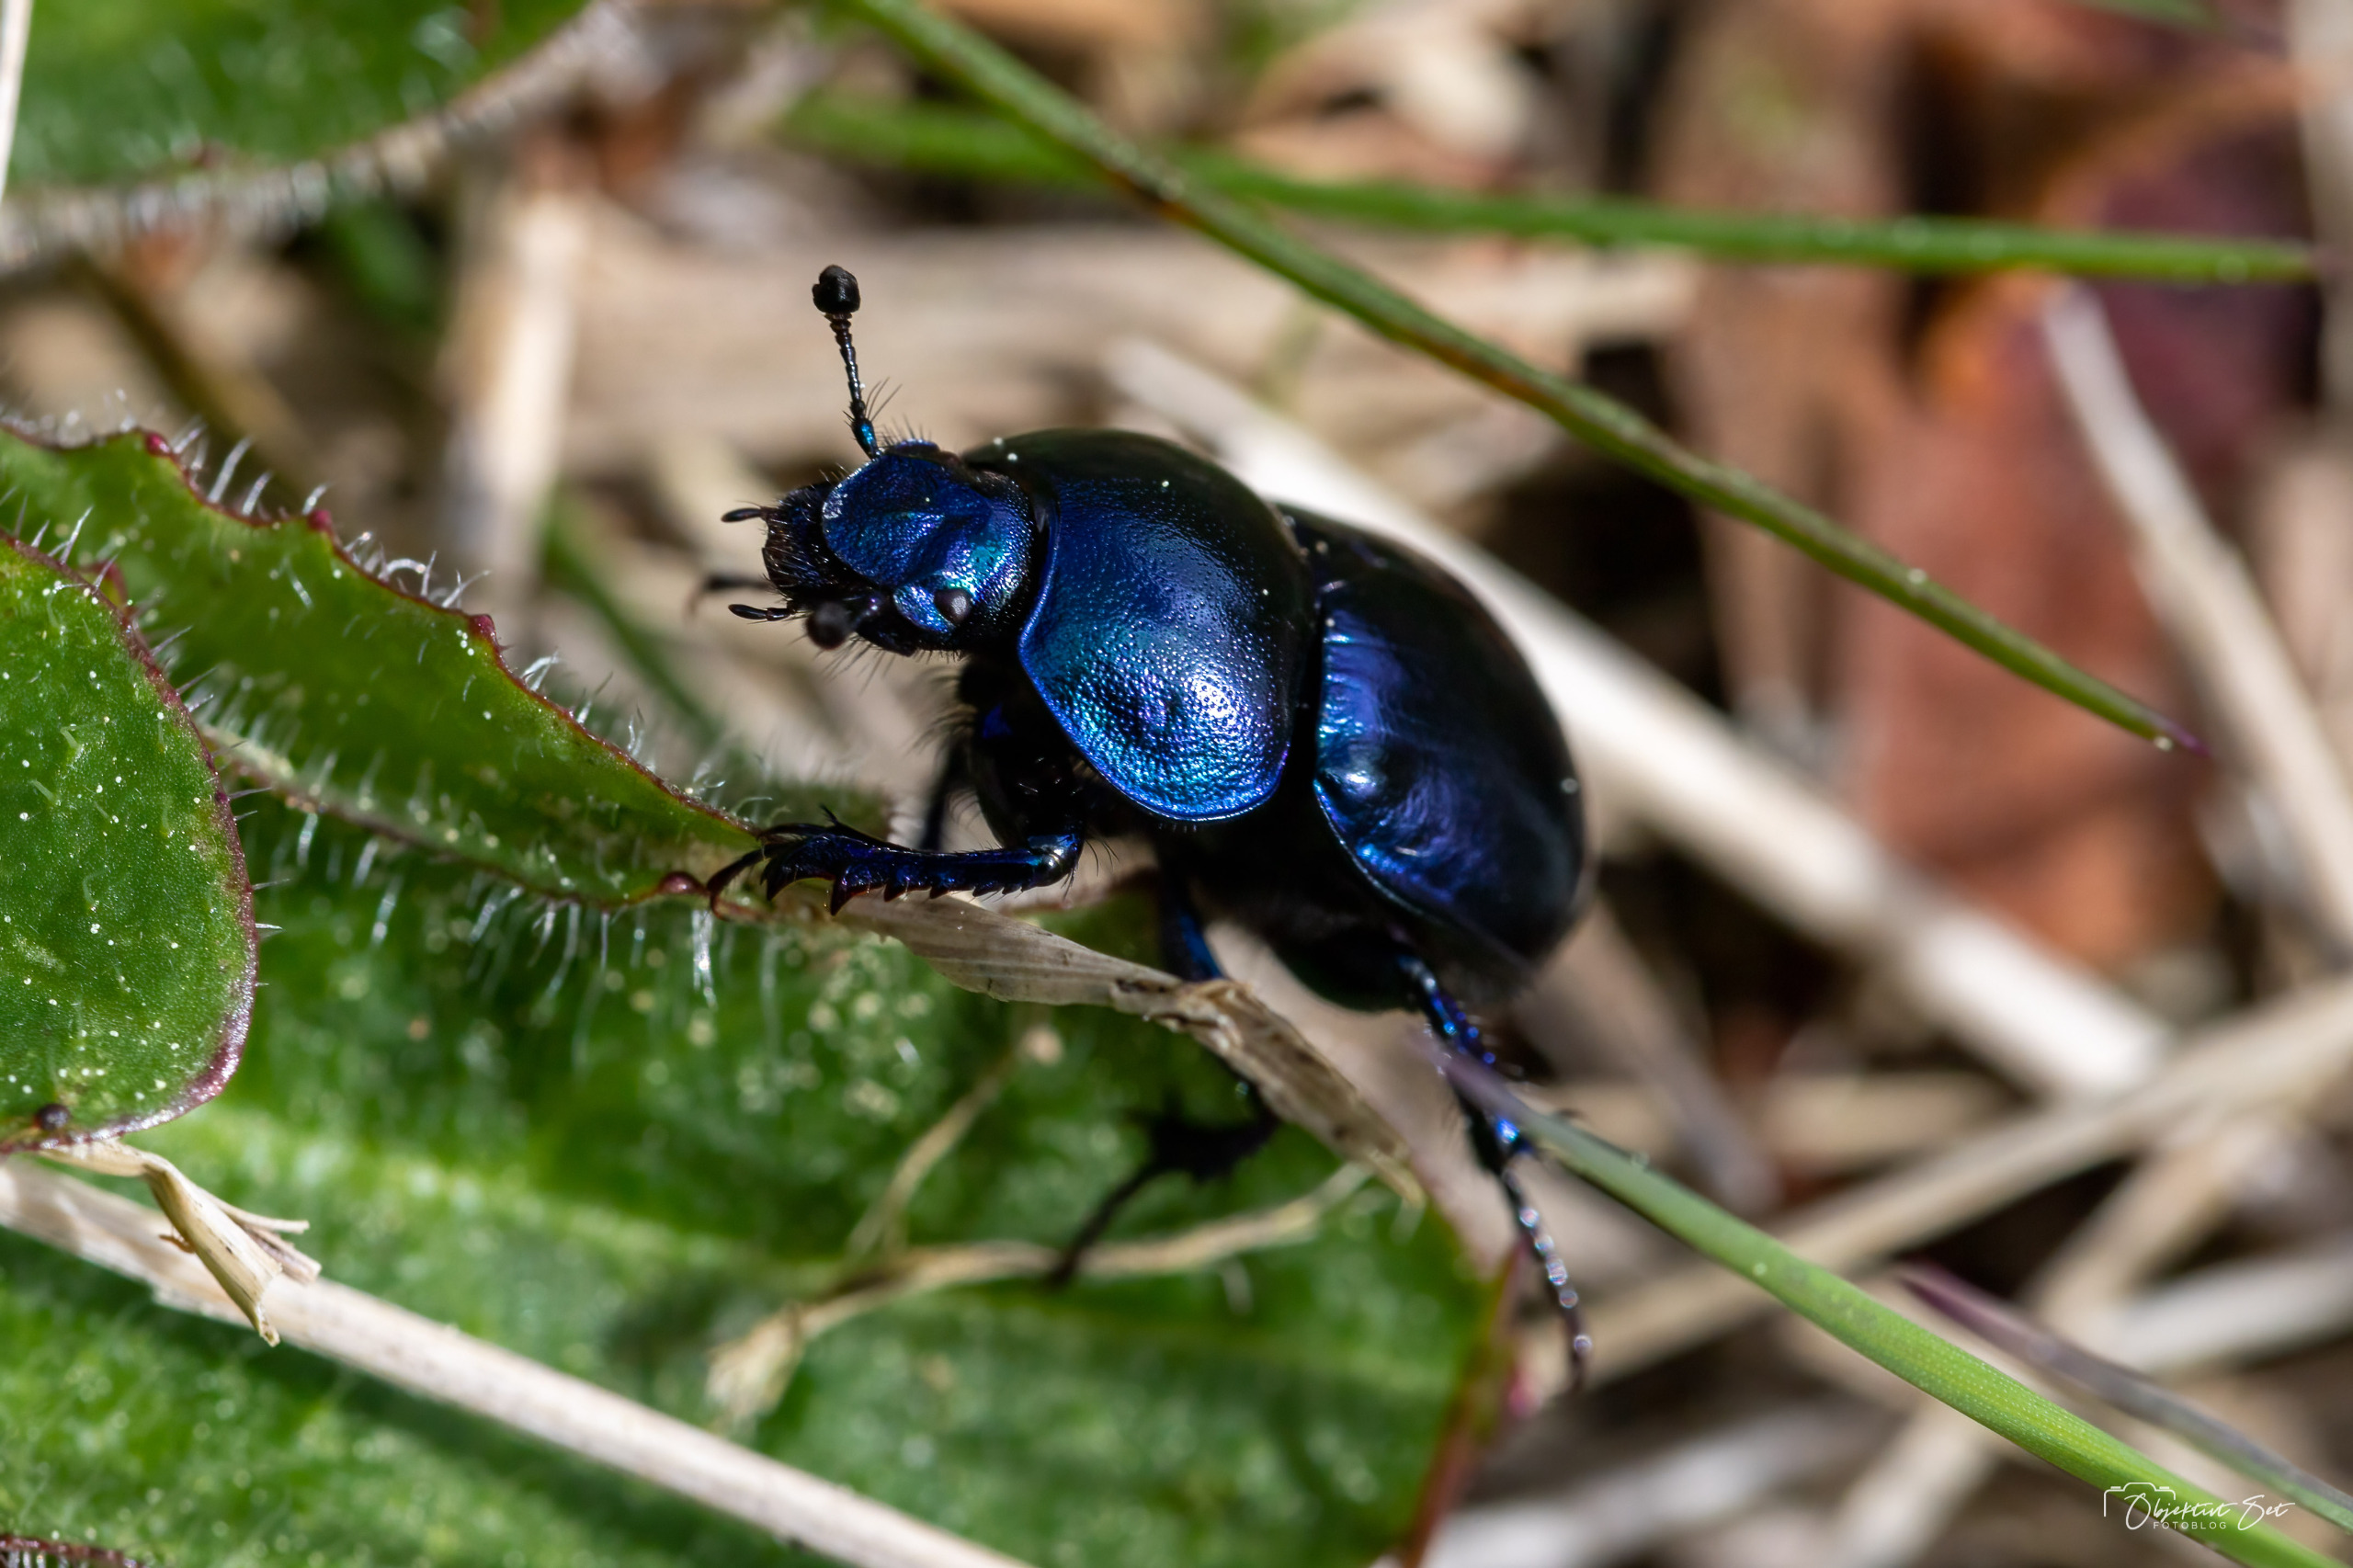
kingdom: Animalia
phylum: Arthropoda
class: Insecta
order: Coleoptera
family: Geotrupidae
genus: Trypocopris
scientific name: Trypocopris vernalis
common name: Glat skarnbasse
